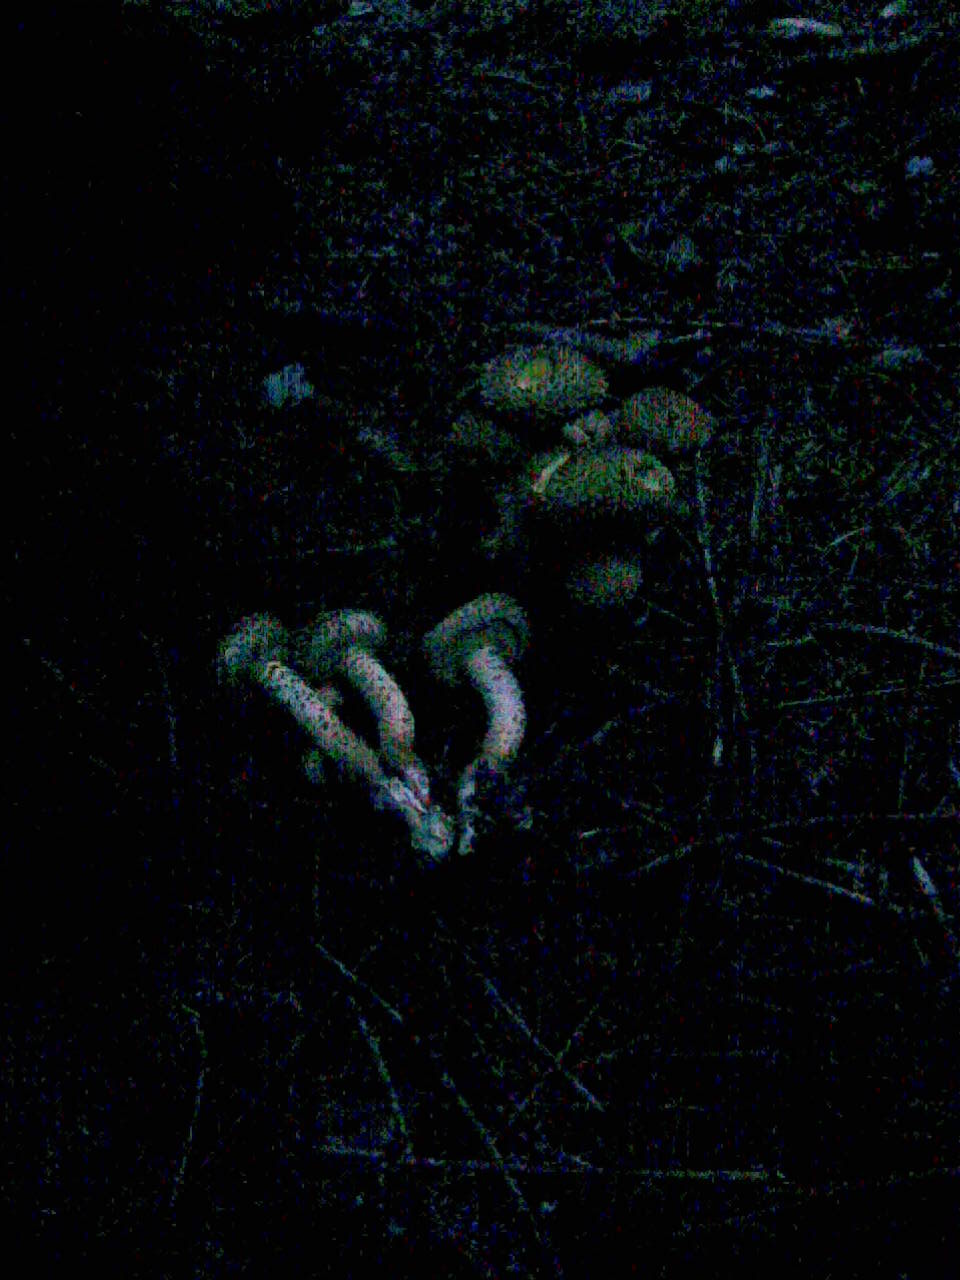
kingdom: Fungi
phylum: Basidiomycota
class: Agaricomycetes
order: Agaricales
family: Strophariaceae
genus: Pholiota
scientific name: Pholiota squarrosa
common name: krumskællet skælhat
